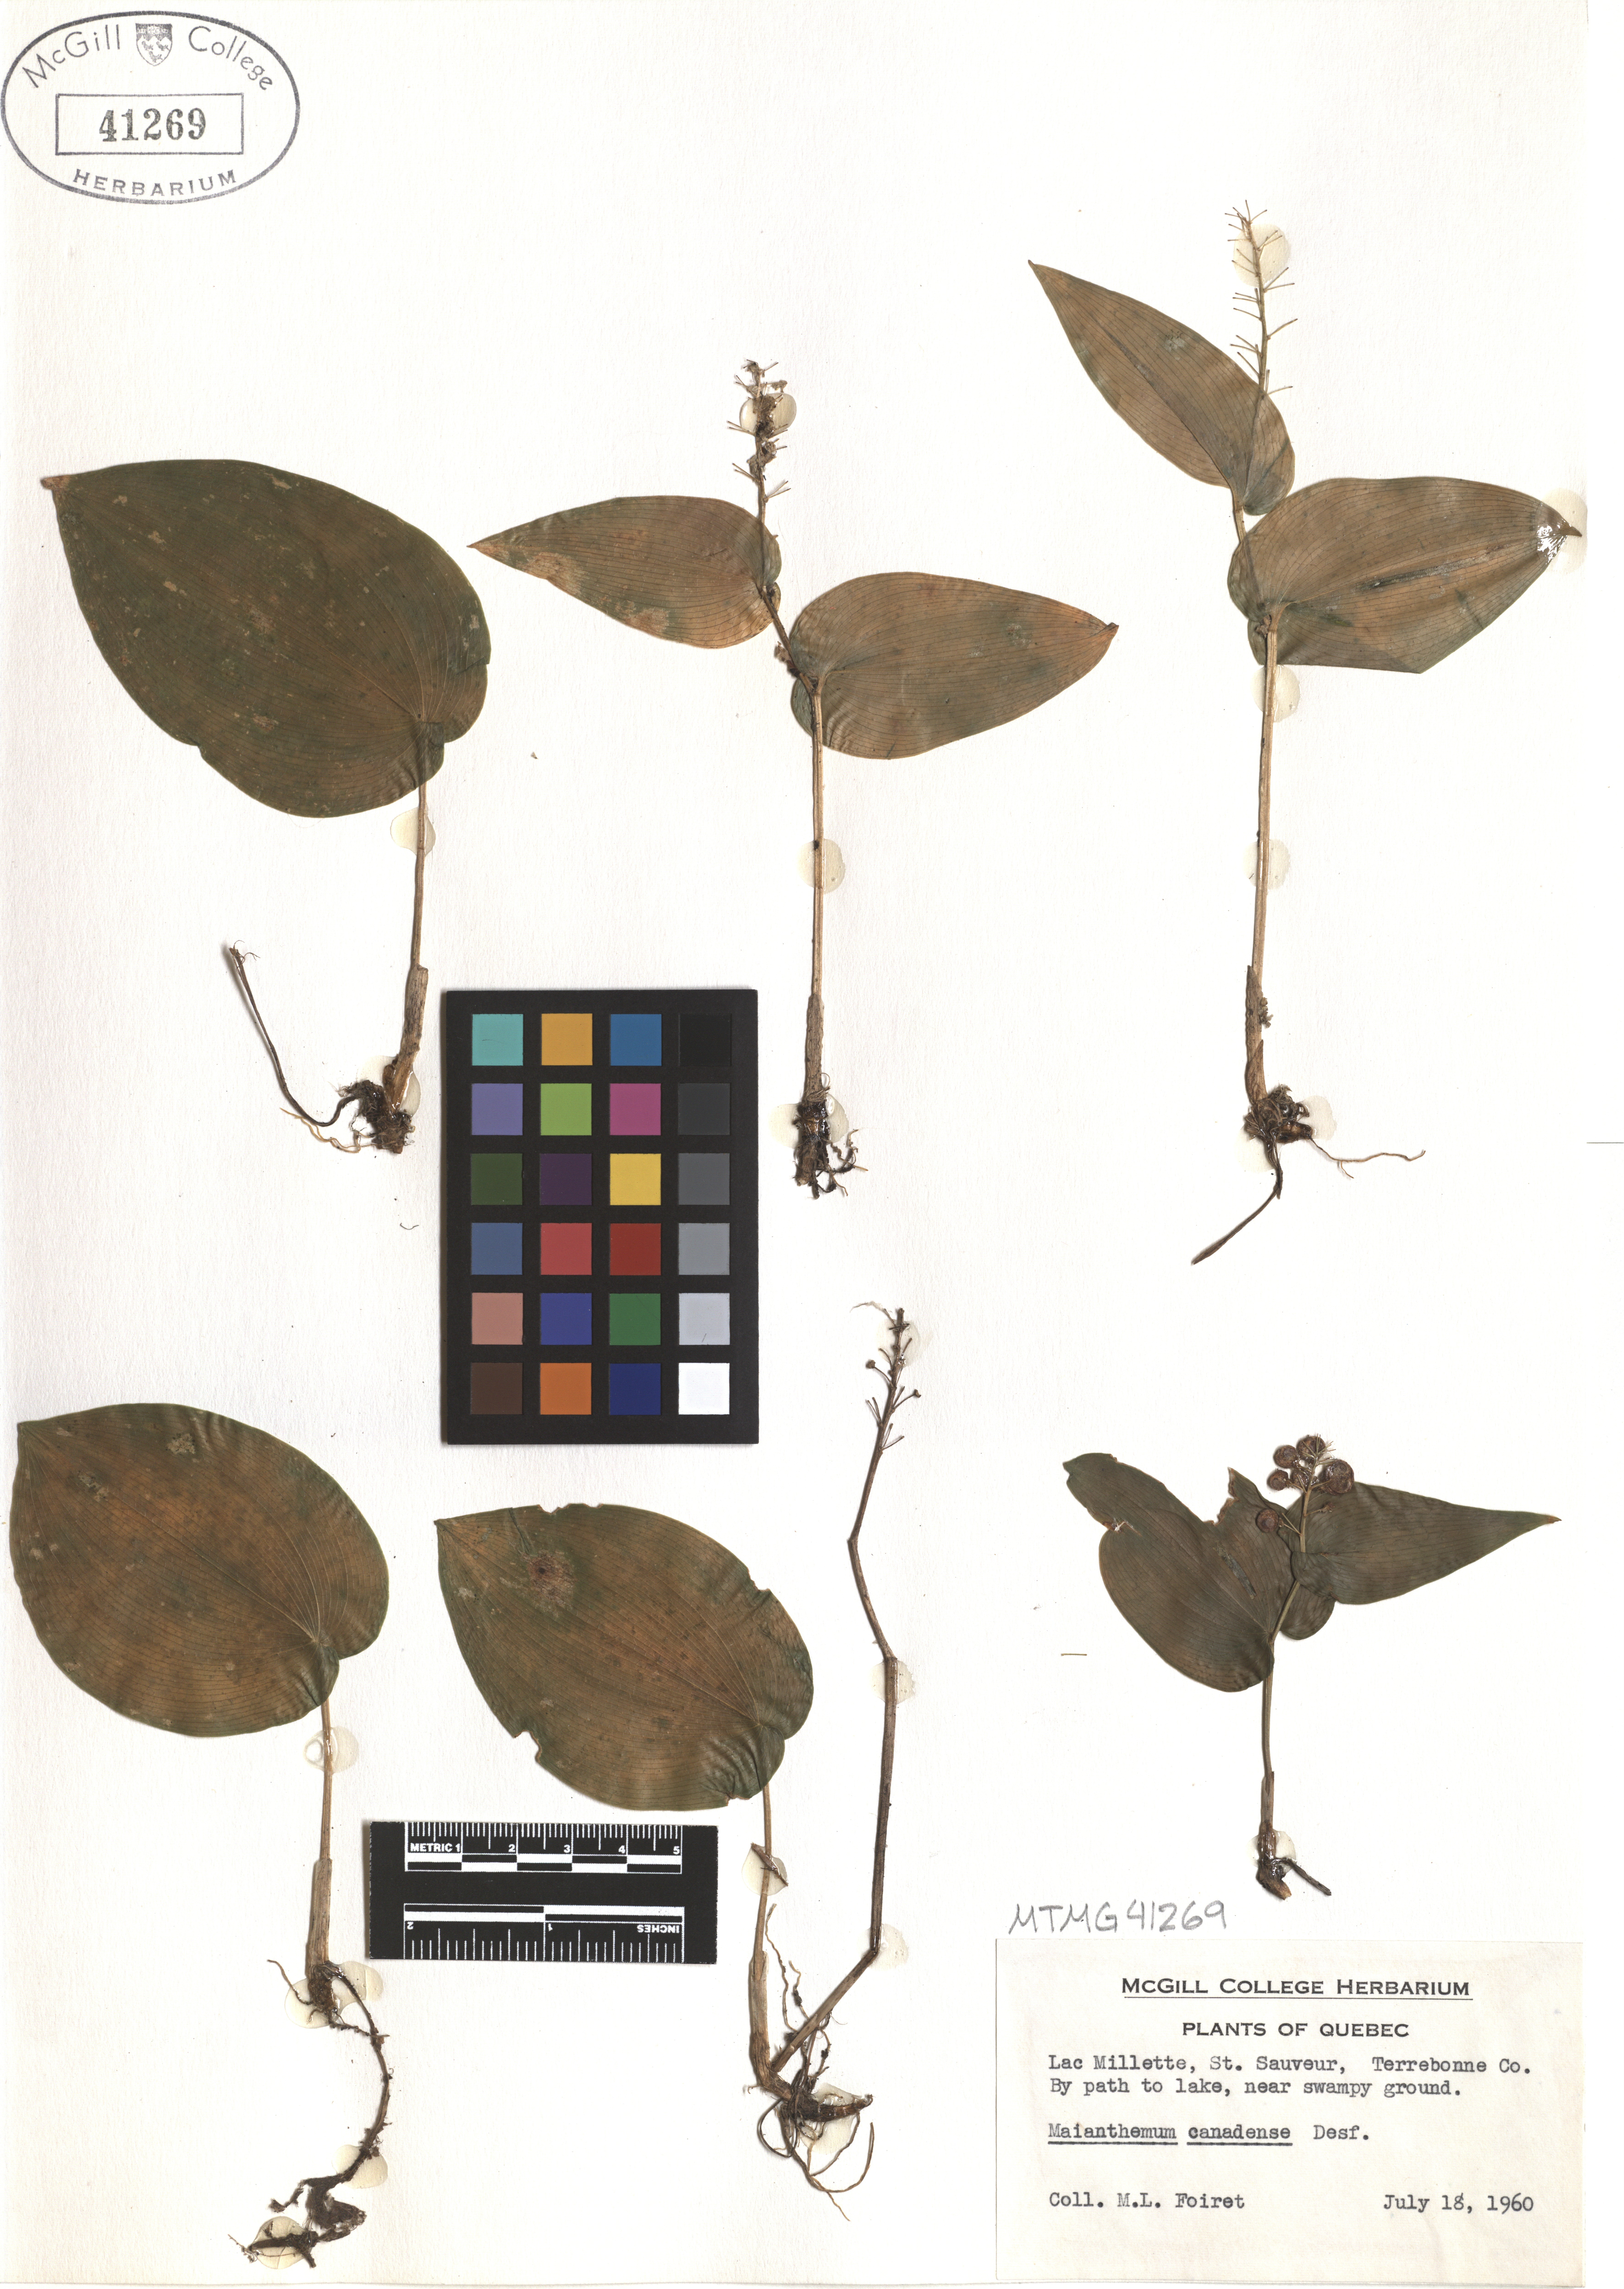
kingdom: Plantae
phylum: Tracheophyta
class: Liliopsida
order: Asparagales
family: Asparagaceae
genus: Maianthemum
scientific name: Maianthemum canadense
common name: False lily-of-the-valley
